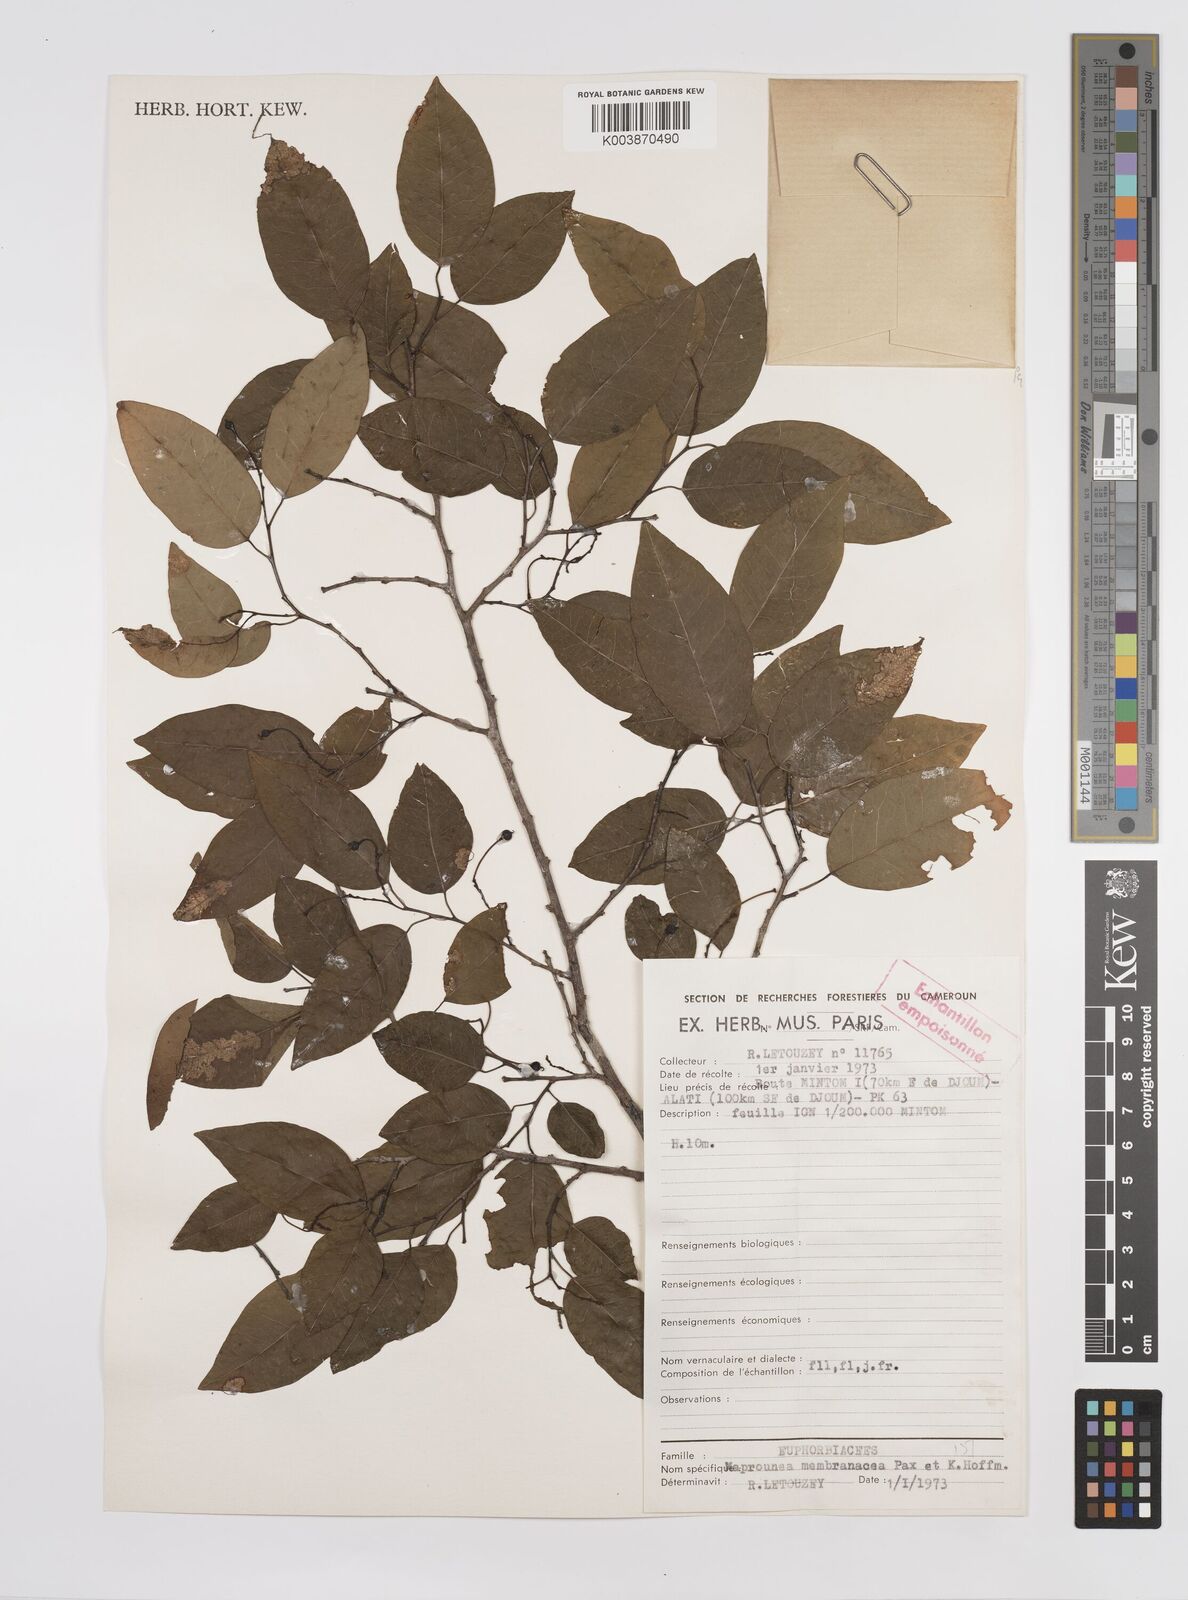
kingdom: Plantae
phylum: Tracheophyta
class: Magnoliopsida
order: Malpighiales
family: Euphorbiaceae
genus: Maprounea
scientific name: Maprounea membranacea
